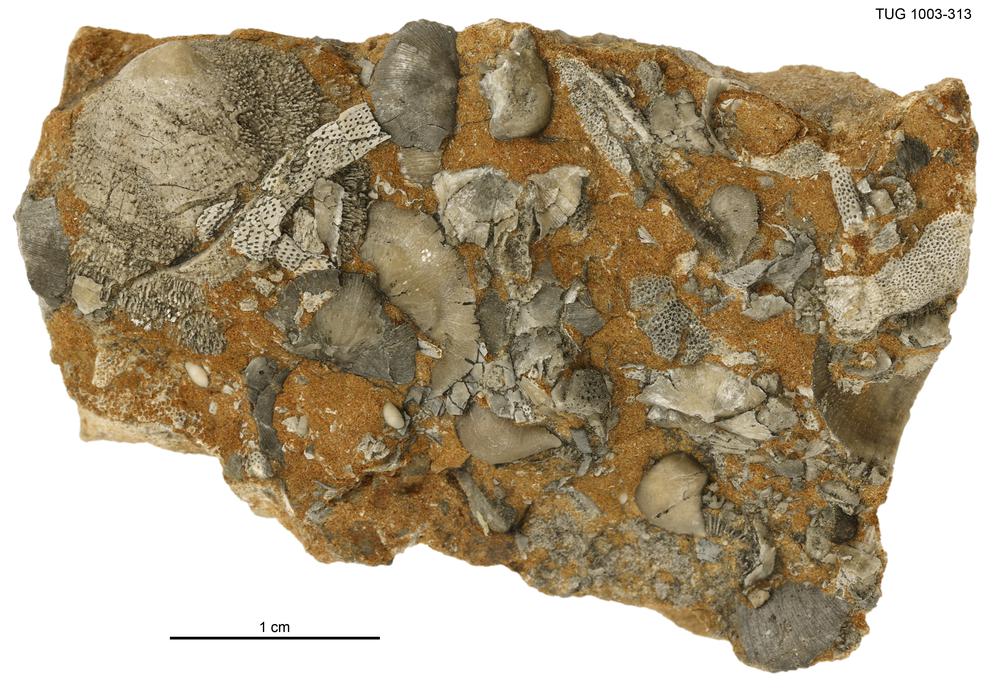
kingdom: Animalia
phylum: Brachiopoda
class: Craniata
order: Craniida
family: Craniidae
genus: Philhedra
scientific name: Philhedra
